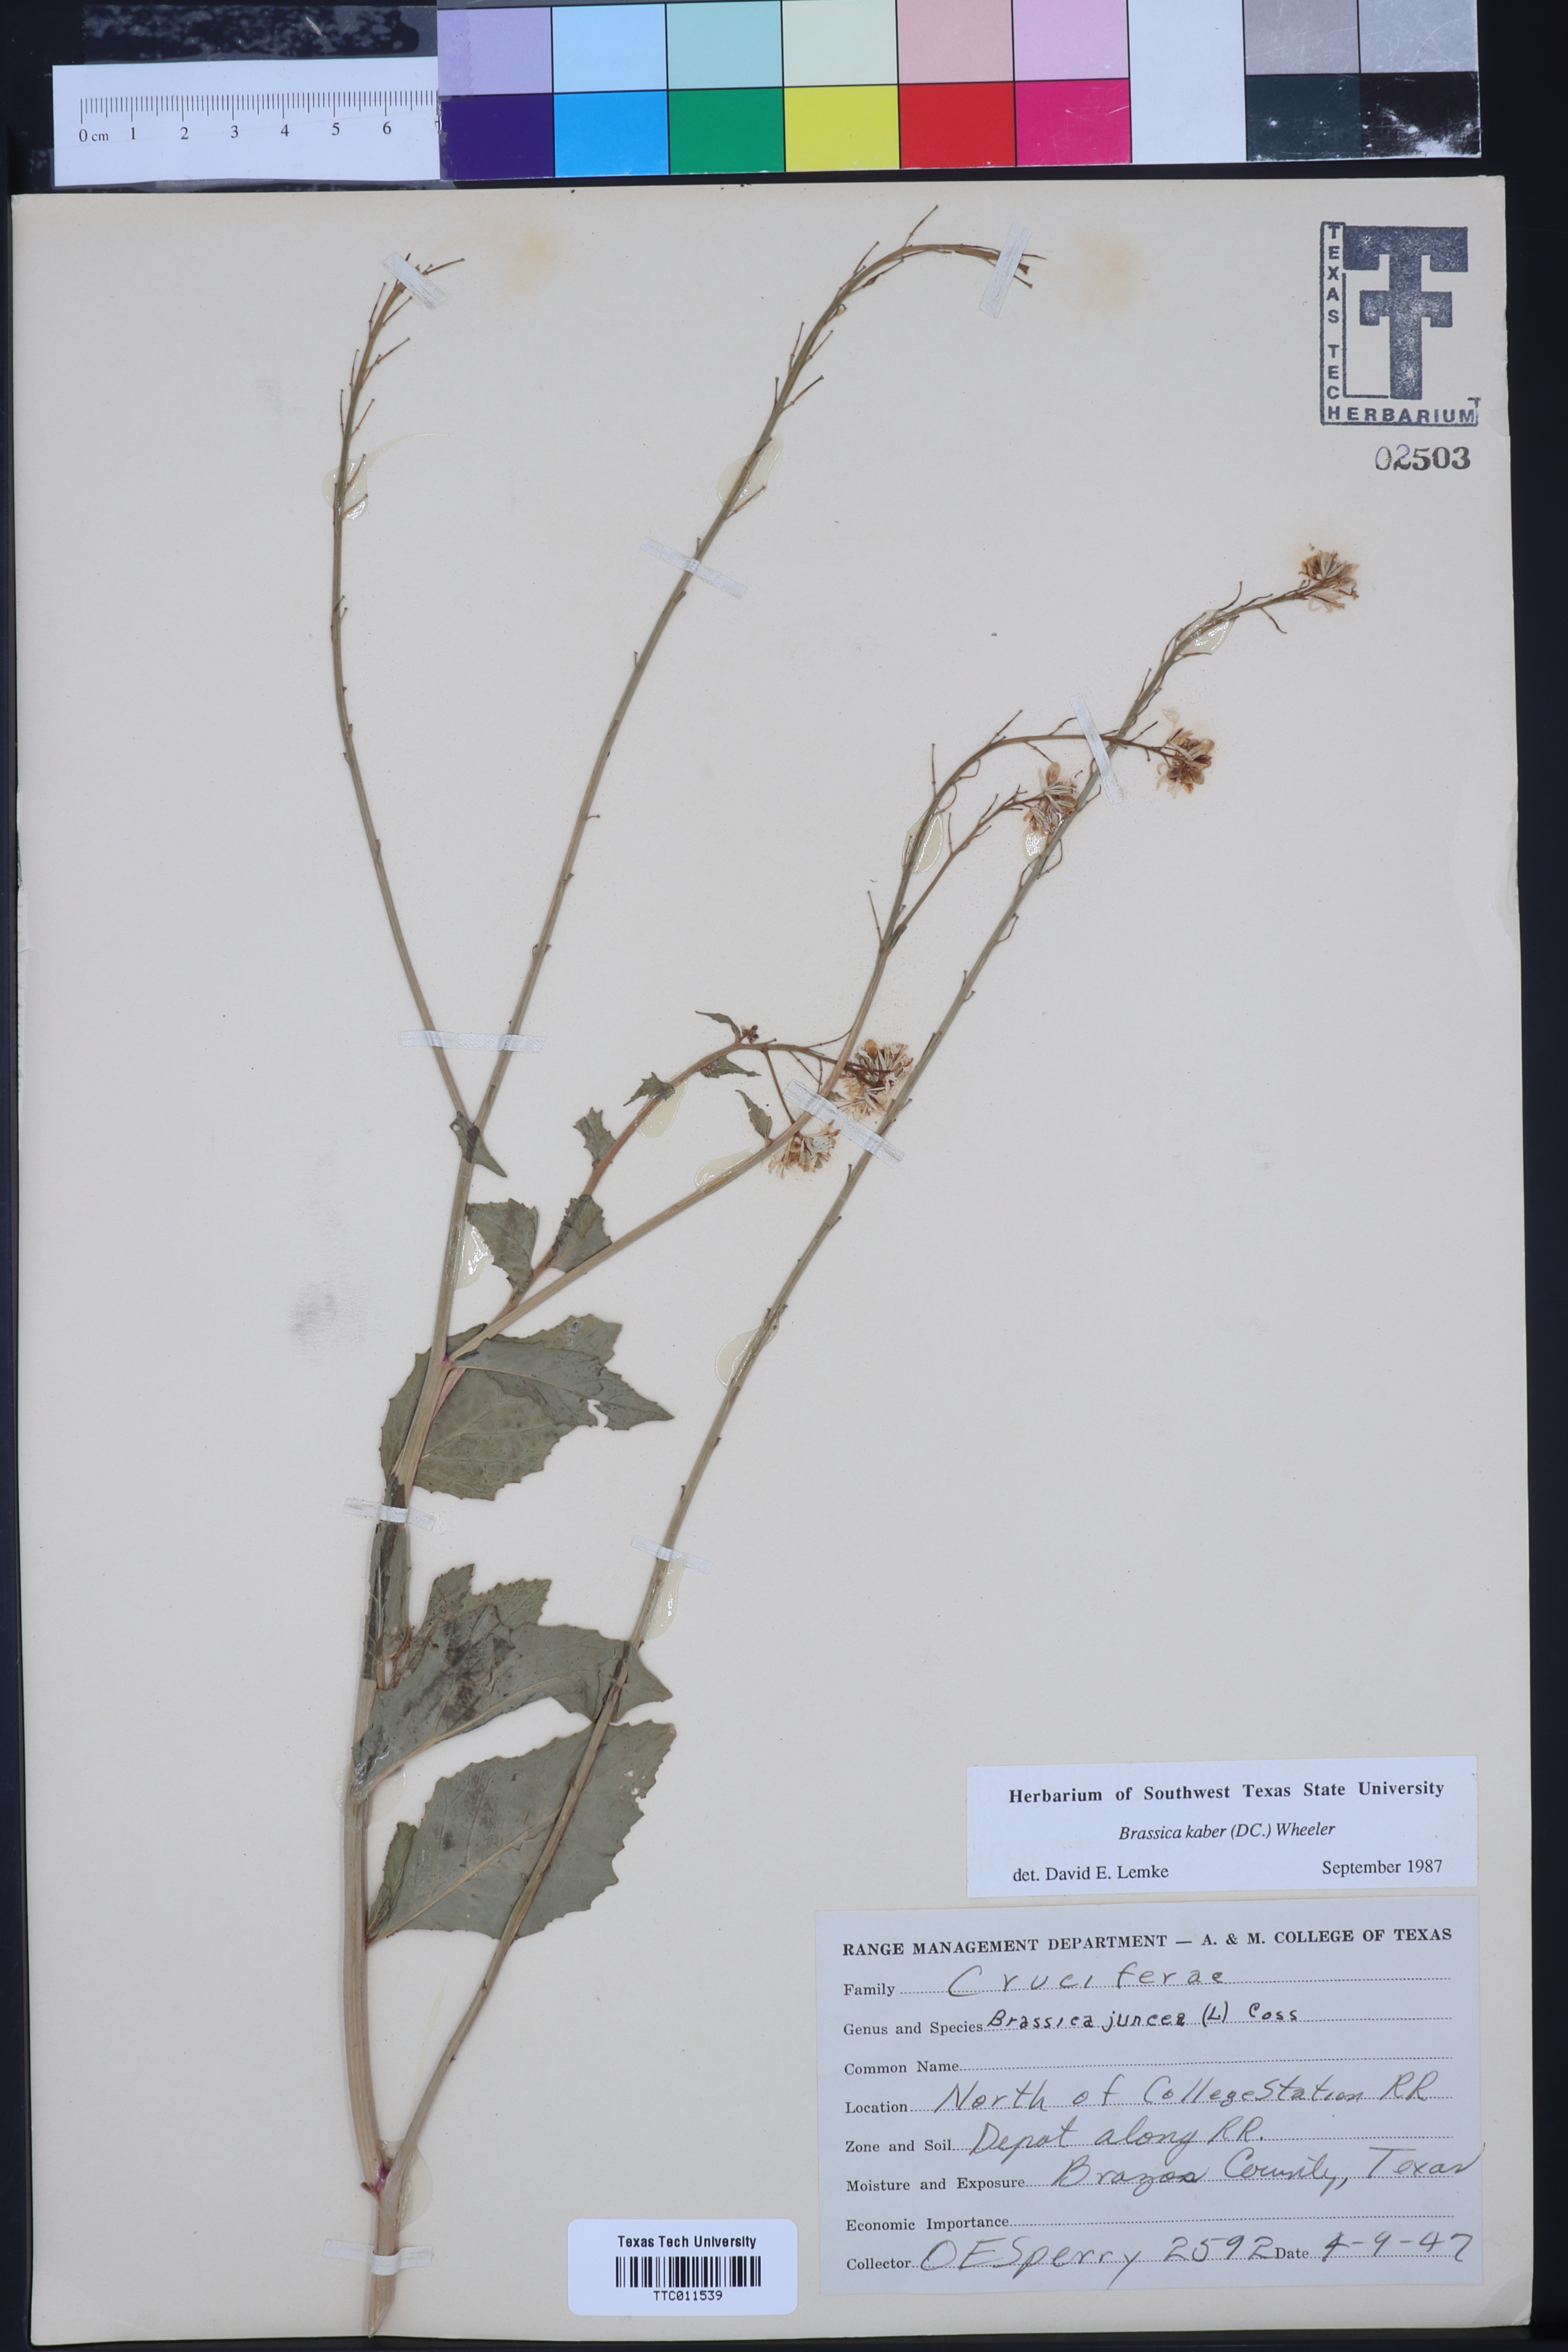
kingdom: Plantae
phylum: Tracheophyta
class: Magnoliopsida
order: Brassicales
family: Brassicaceae
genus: Brassica
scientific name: Brassica juncea
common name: Brown mustard
